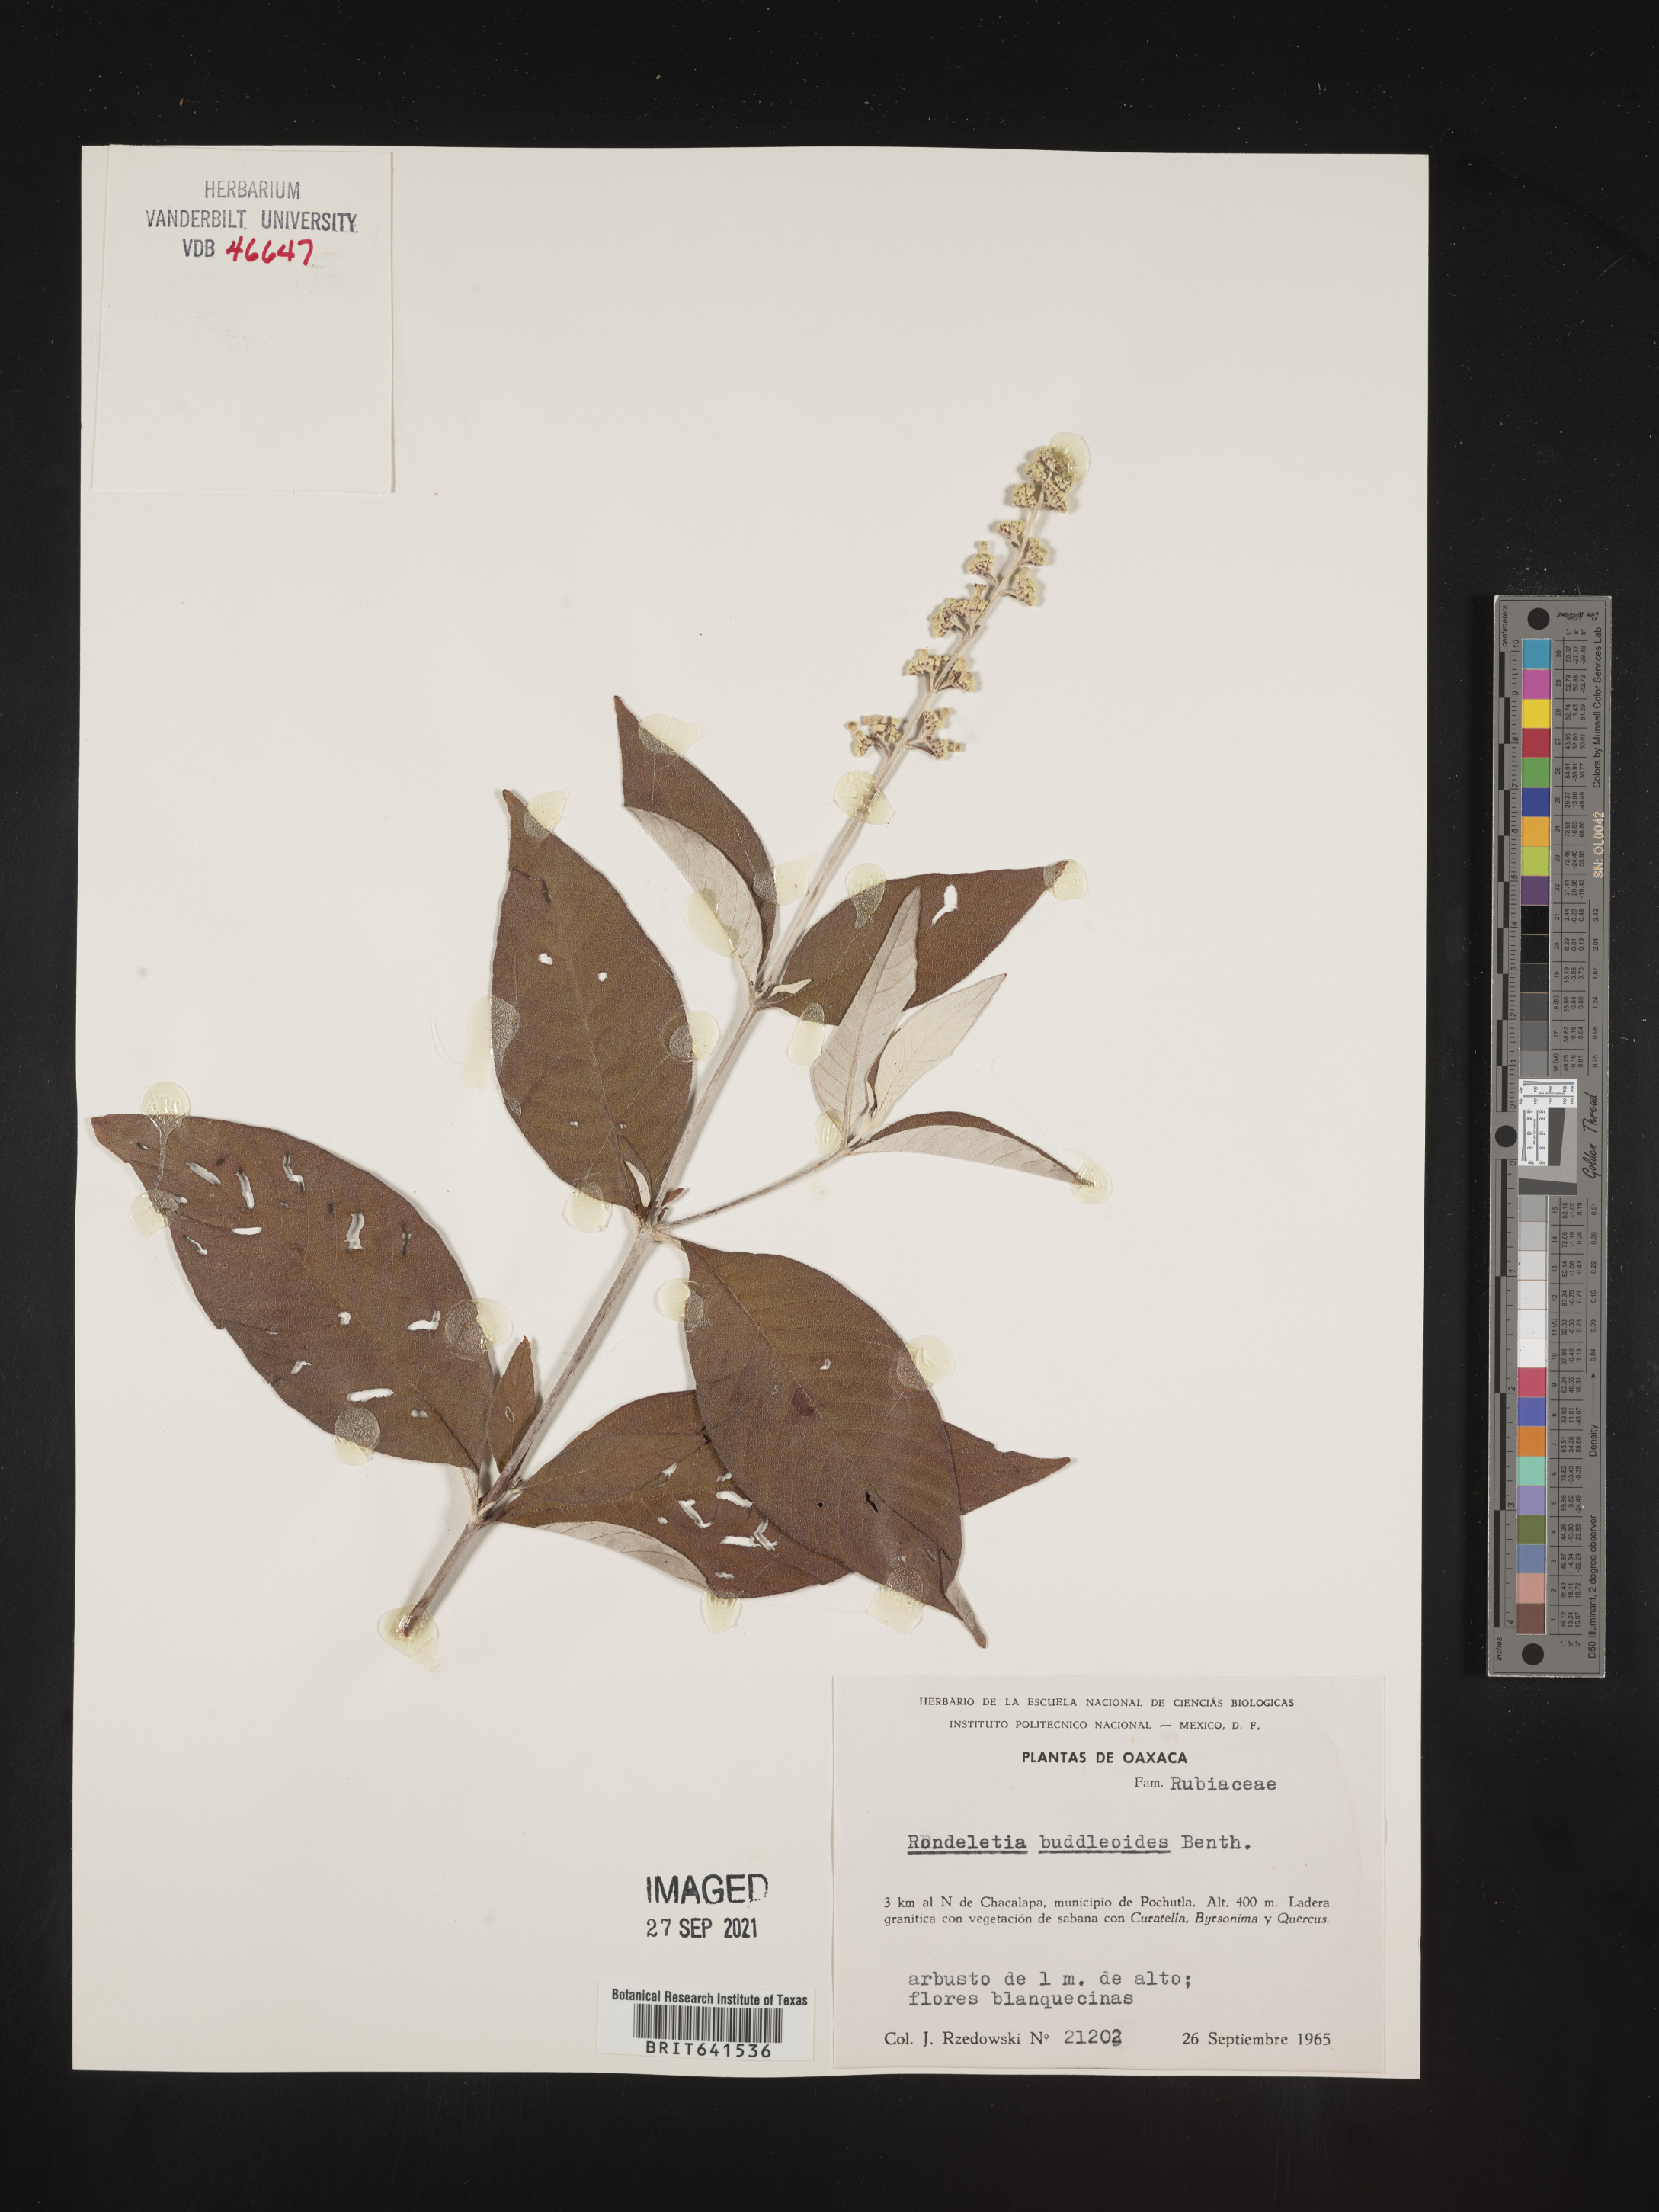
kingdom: Plantae
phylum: Tracheophyta
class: Magnoliopsida
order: Gentianales
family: Rubiaceae
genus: Rondeletia
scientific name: Rondeletia
